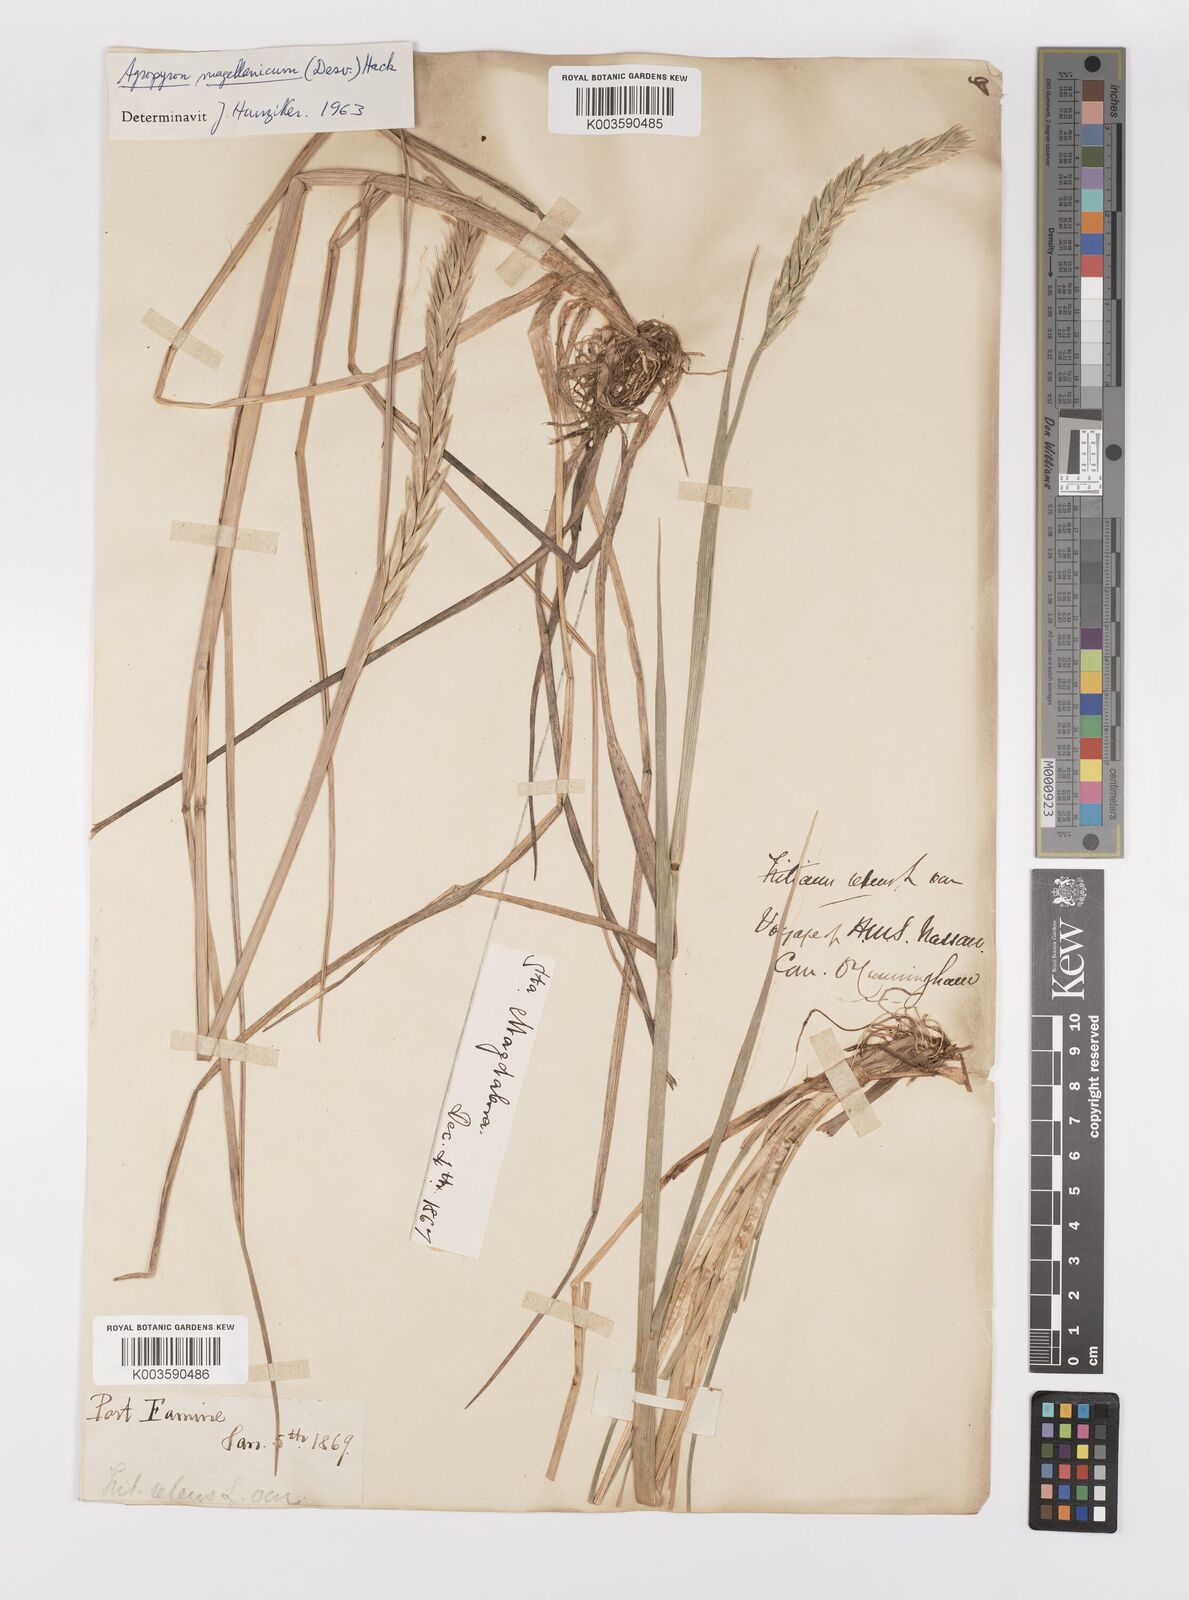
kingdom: Plantae
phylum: Tracheophyta
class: Liliopsida
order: Poales
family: Poaceae
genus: Elymus
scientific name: Elymus magellanicus
